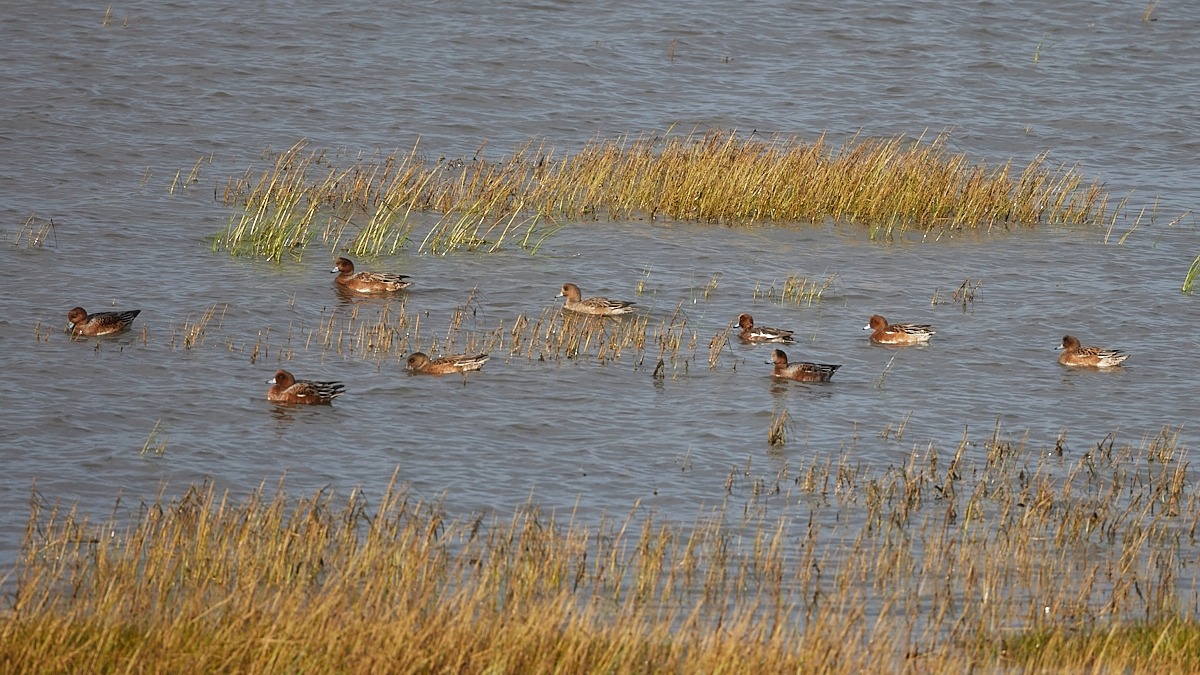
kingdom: Animalia
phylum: Chordata
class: Aves
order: Anseriformes
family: Anatidae
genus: Mareca
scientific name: Mareca penelope
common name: Pibeand
